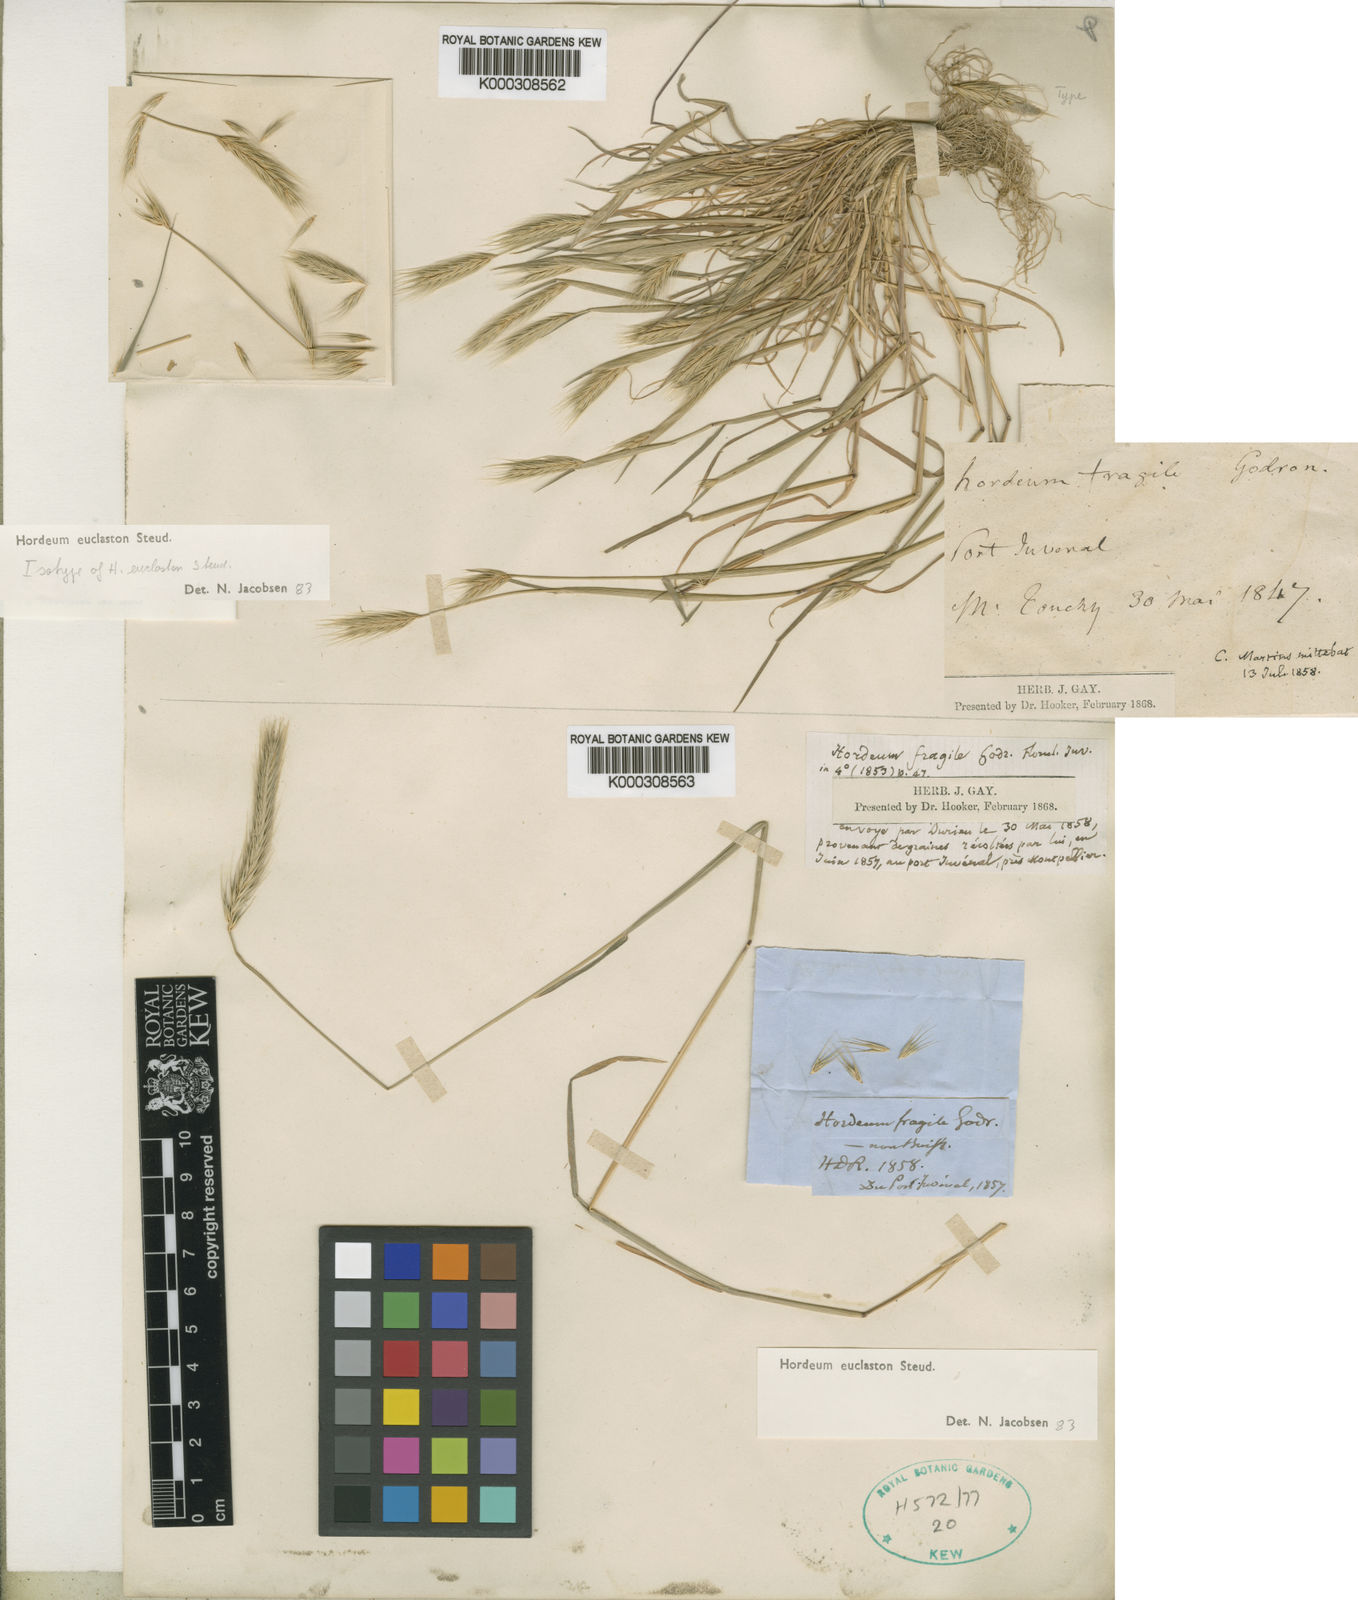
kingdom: Plantae
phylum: Tracheophyta
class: Liliopsida
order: Poales
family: Poaceae
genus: Hordeum
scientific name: Hordeum euclaston
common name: Argentine barley
